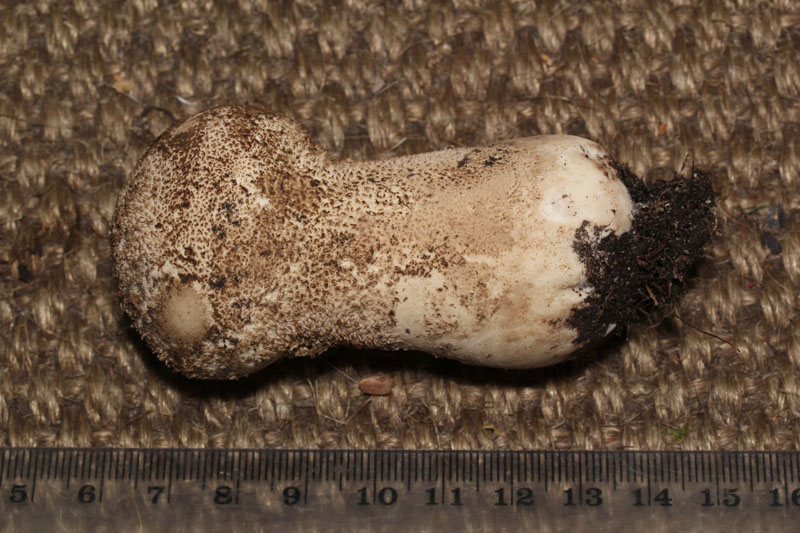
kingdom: Fungi
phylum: Basidiomycota
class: Agaricomycetes
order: Agaricales
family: Lycoperdaceae
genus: Lycoperdon
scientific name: Lycoperdon excipuliforme
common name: højstokket støvbold
